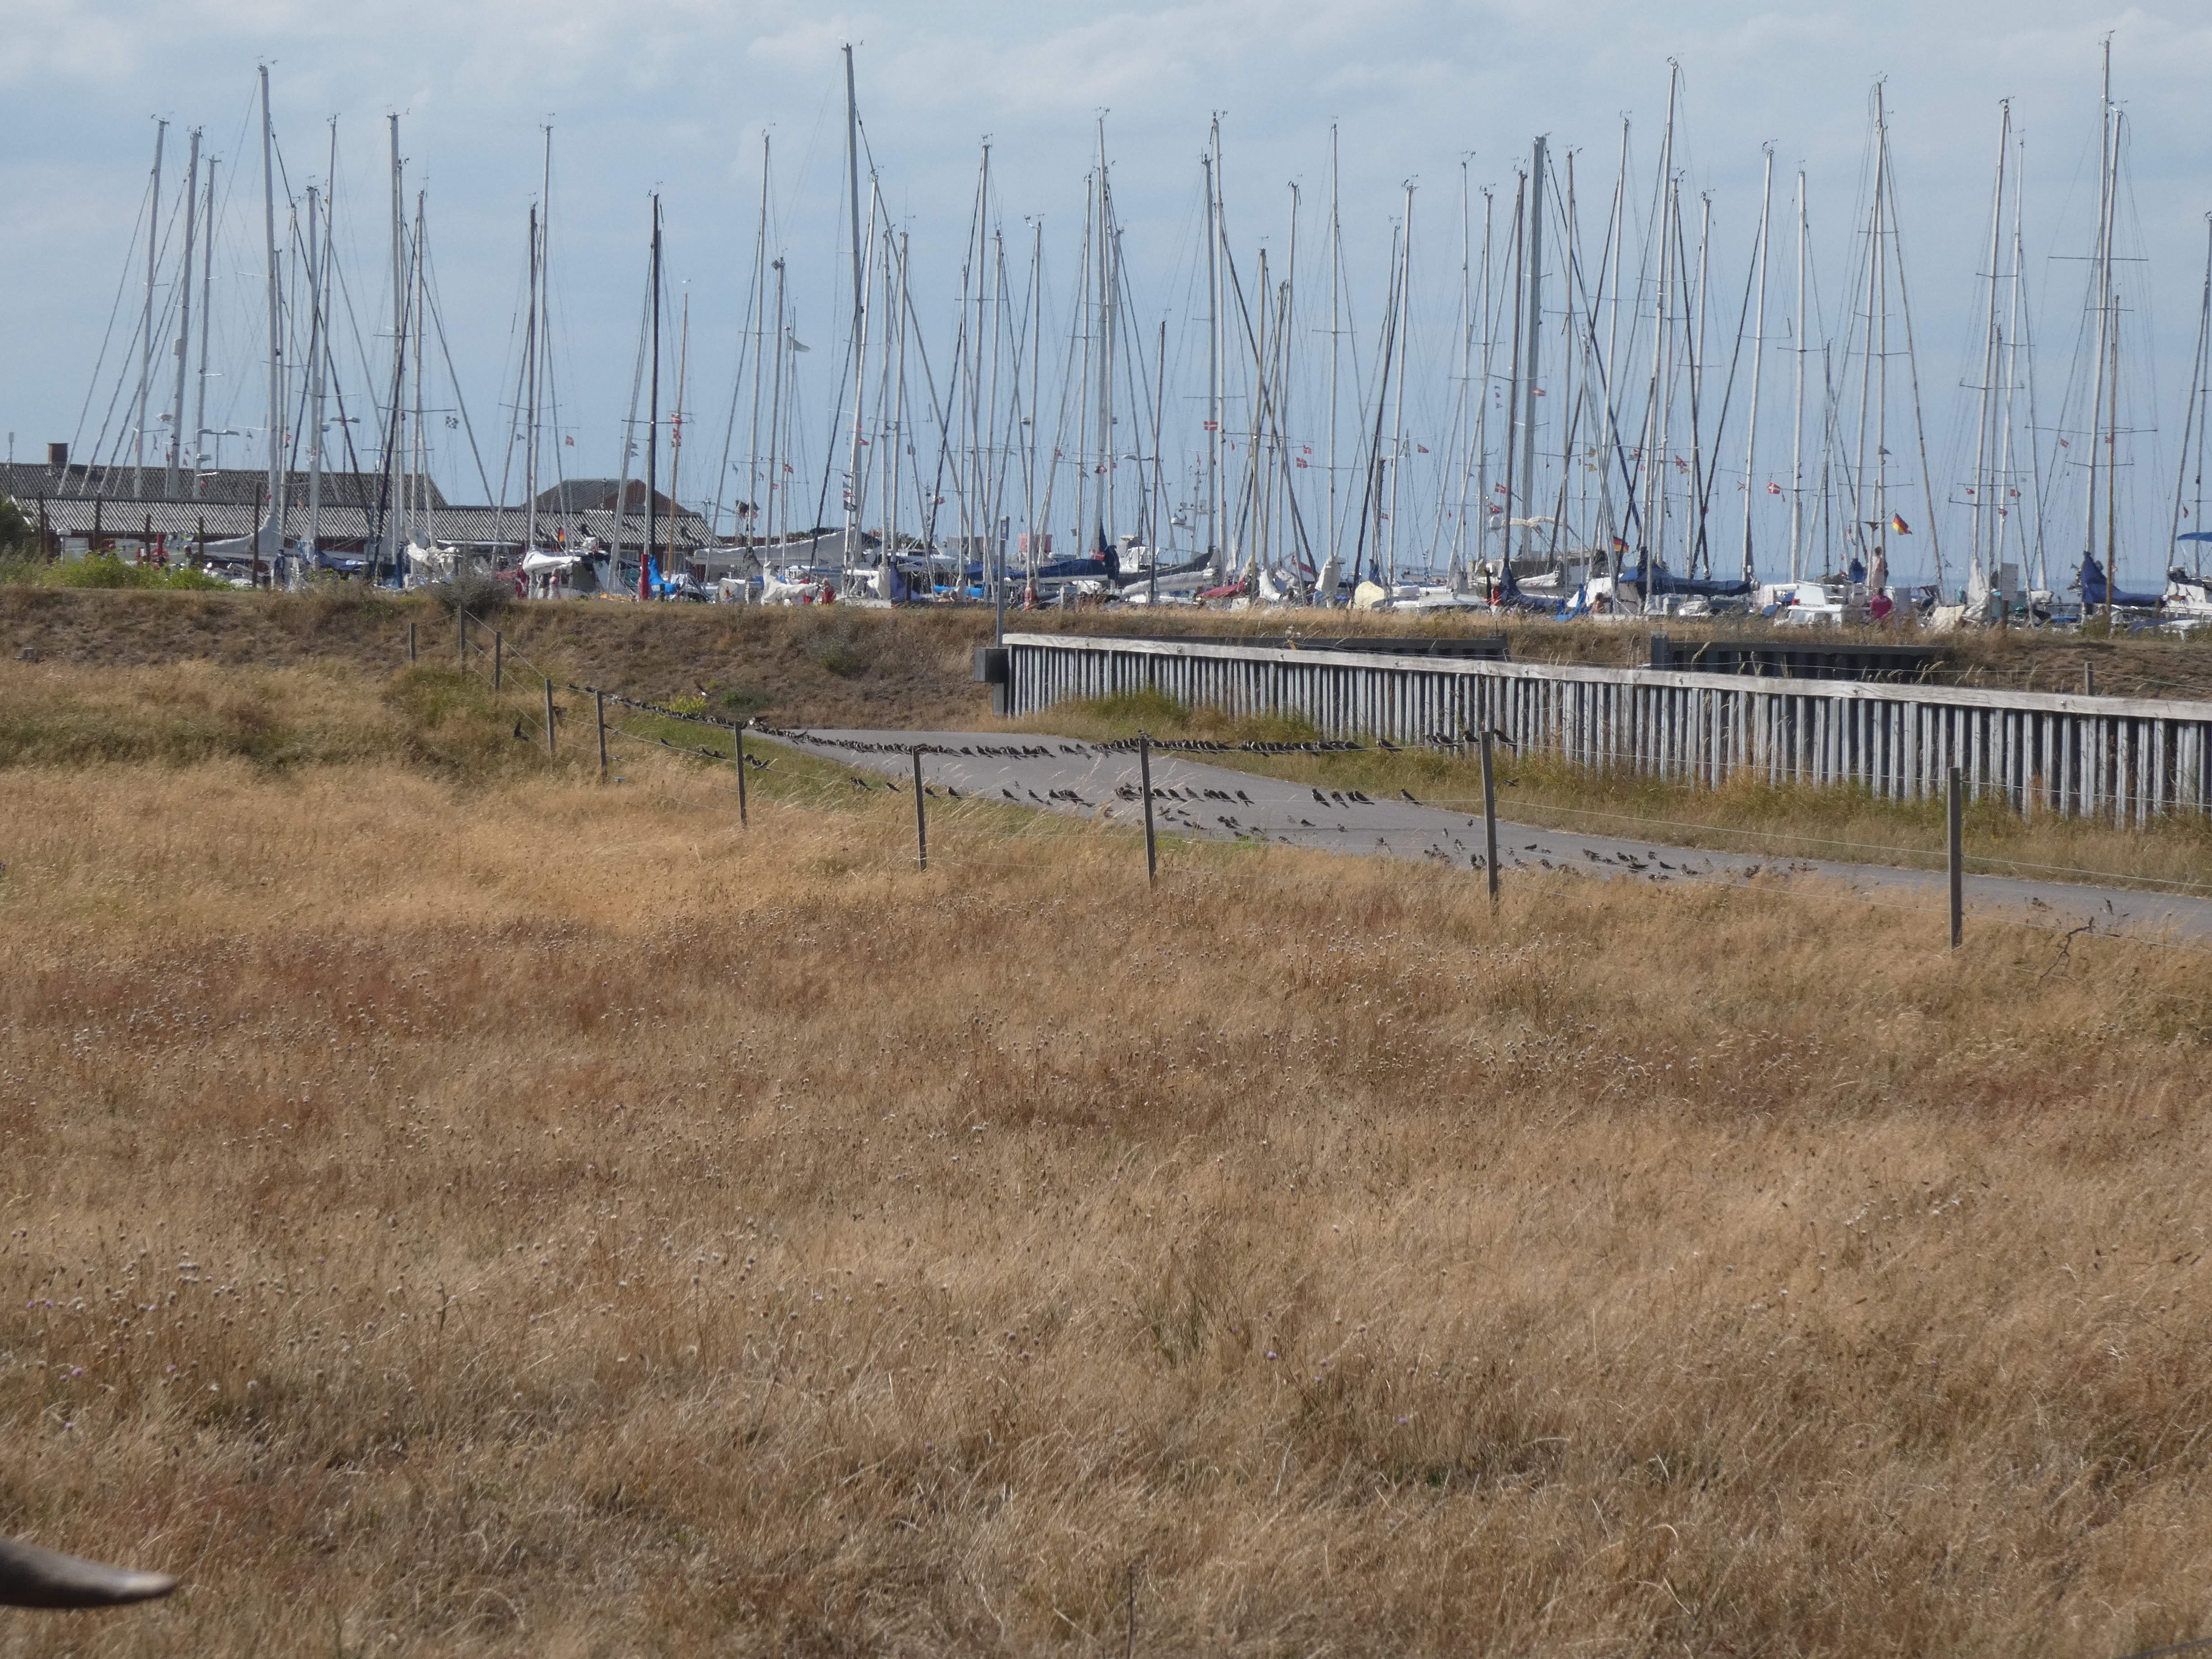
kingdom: Animalia
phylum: Chordata
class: Aves
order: Passeriformes
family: Hirundinidae
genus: Riparia
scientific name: Riparia riparia
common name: Digesvale
